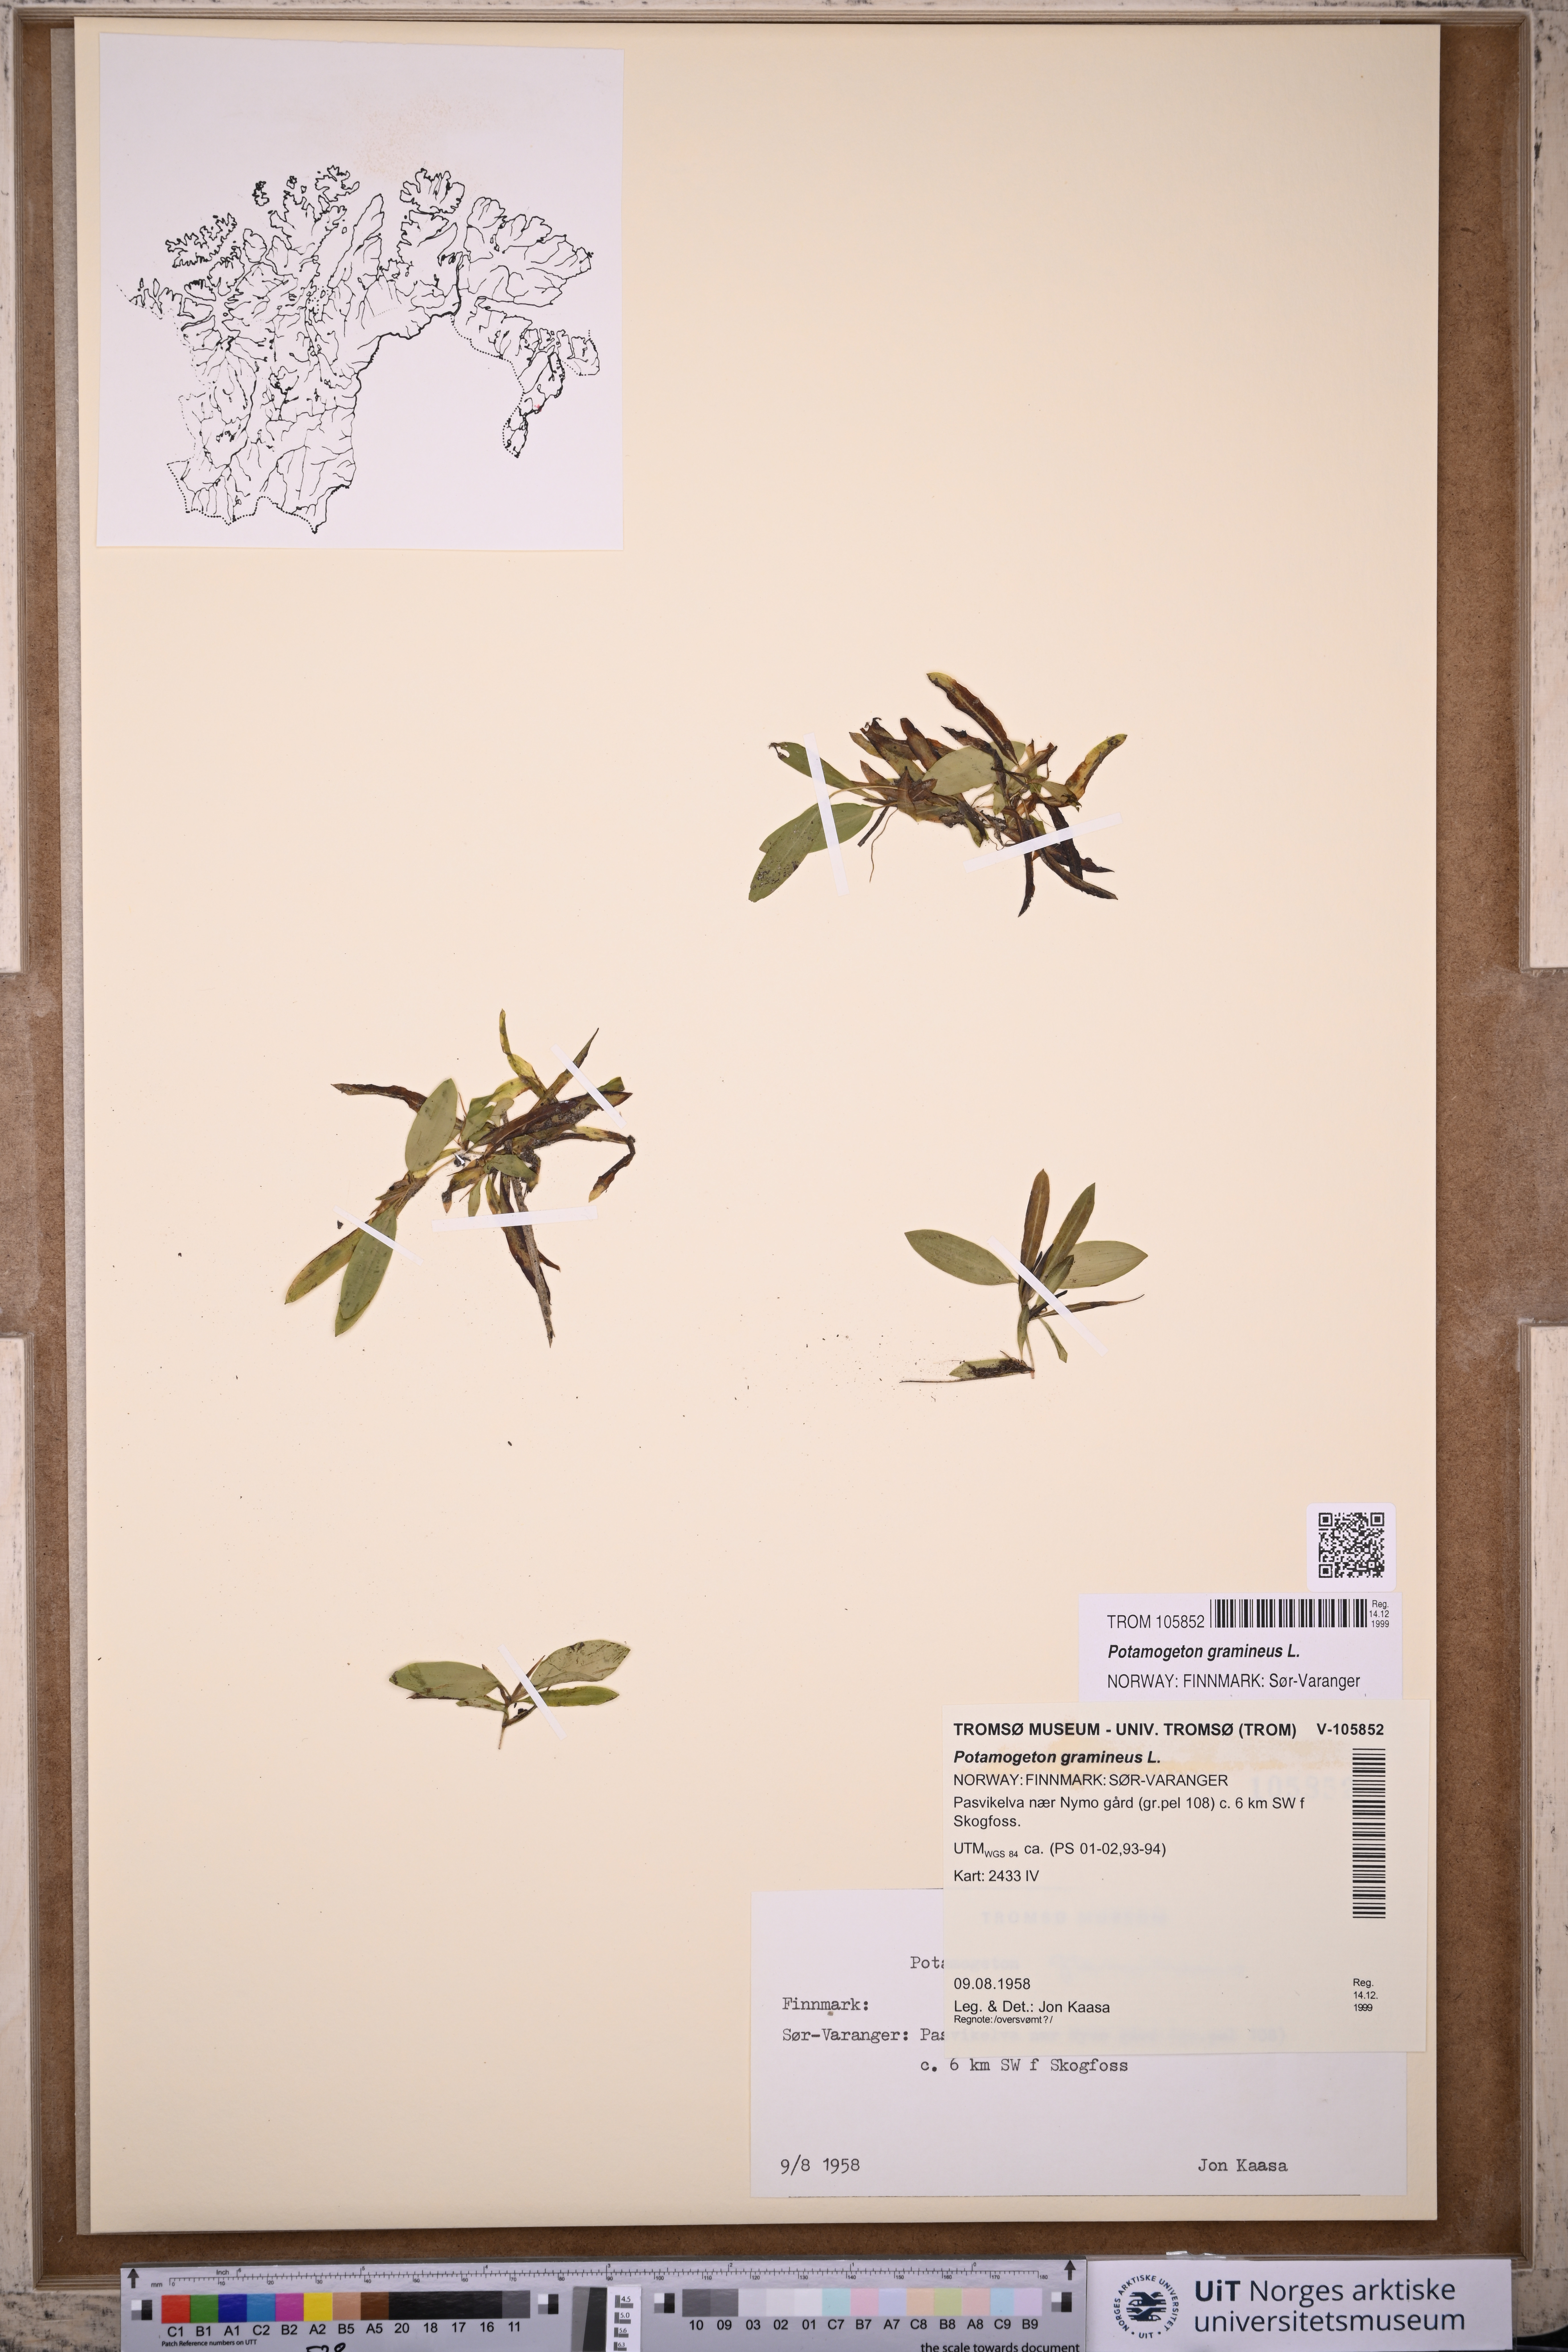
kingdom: Plantae
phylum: Tracheophyta
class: Liliopsida
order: Alismatales
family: Potamogetonaceae
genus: Potamogeton
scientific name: Potamogeton gramineus
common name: Various-leaved pondweed
